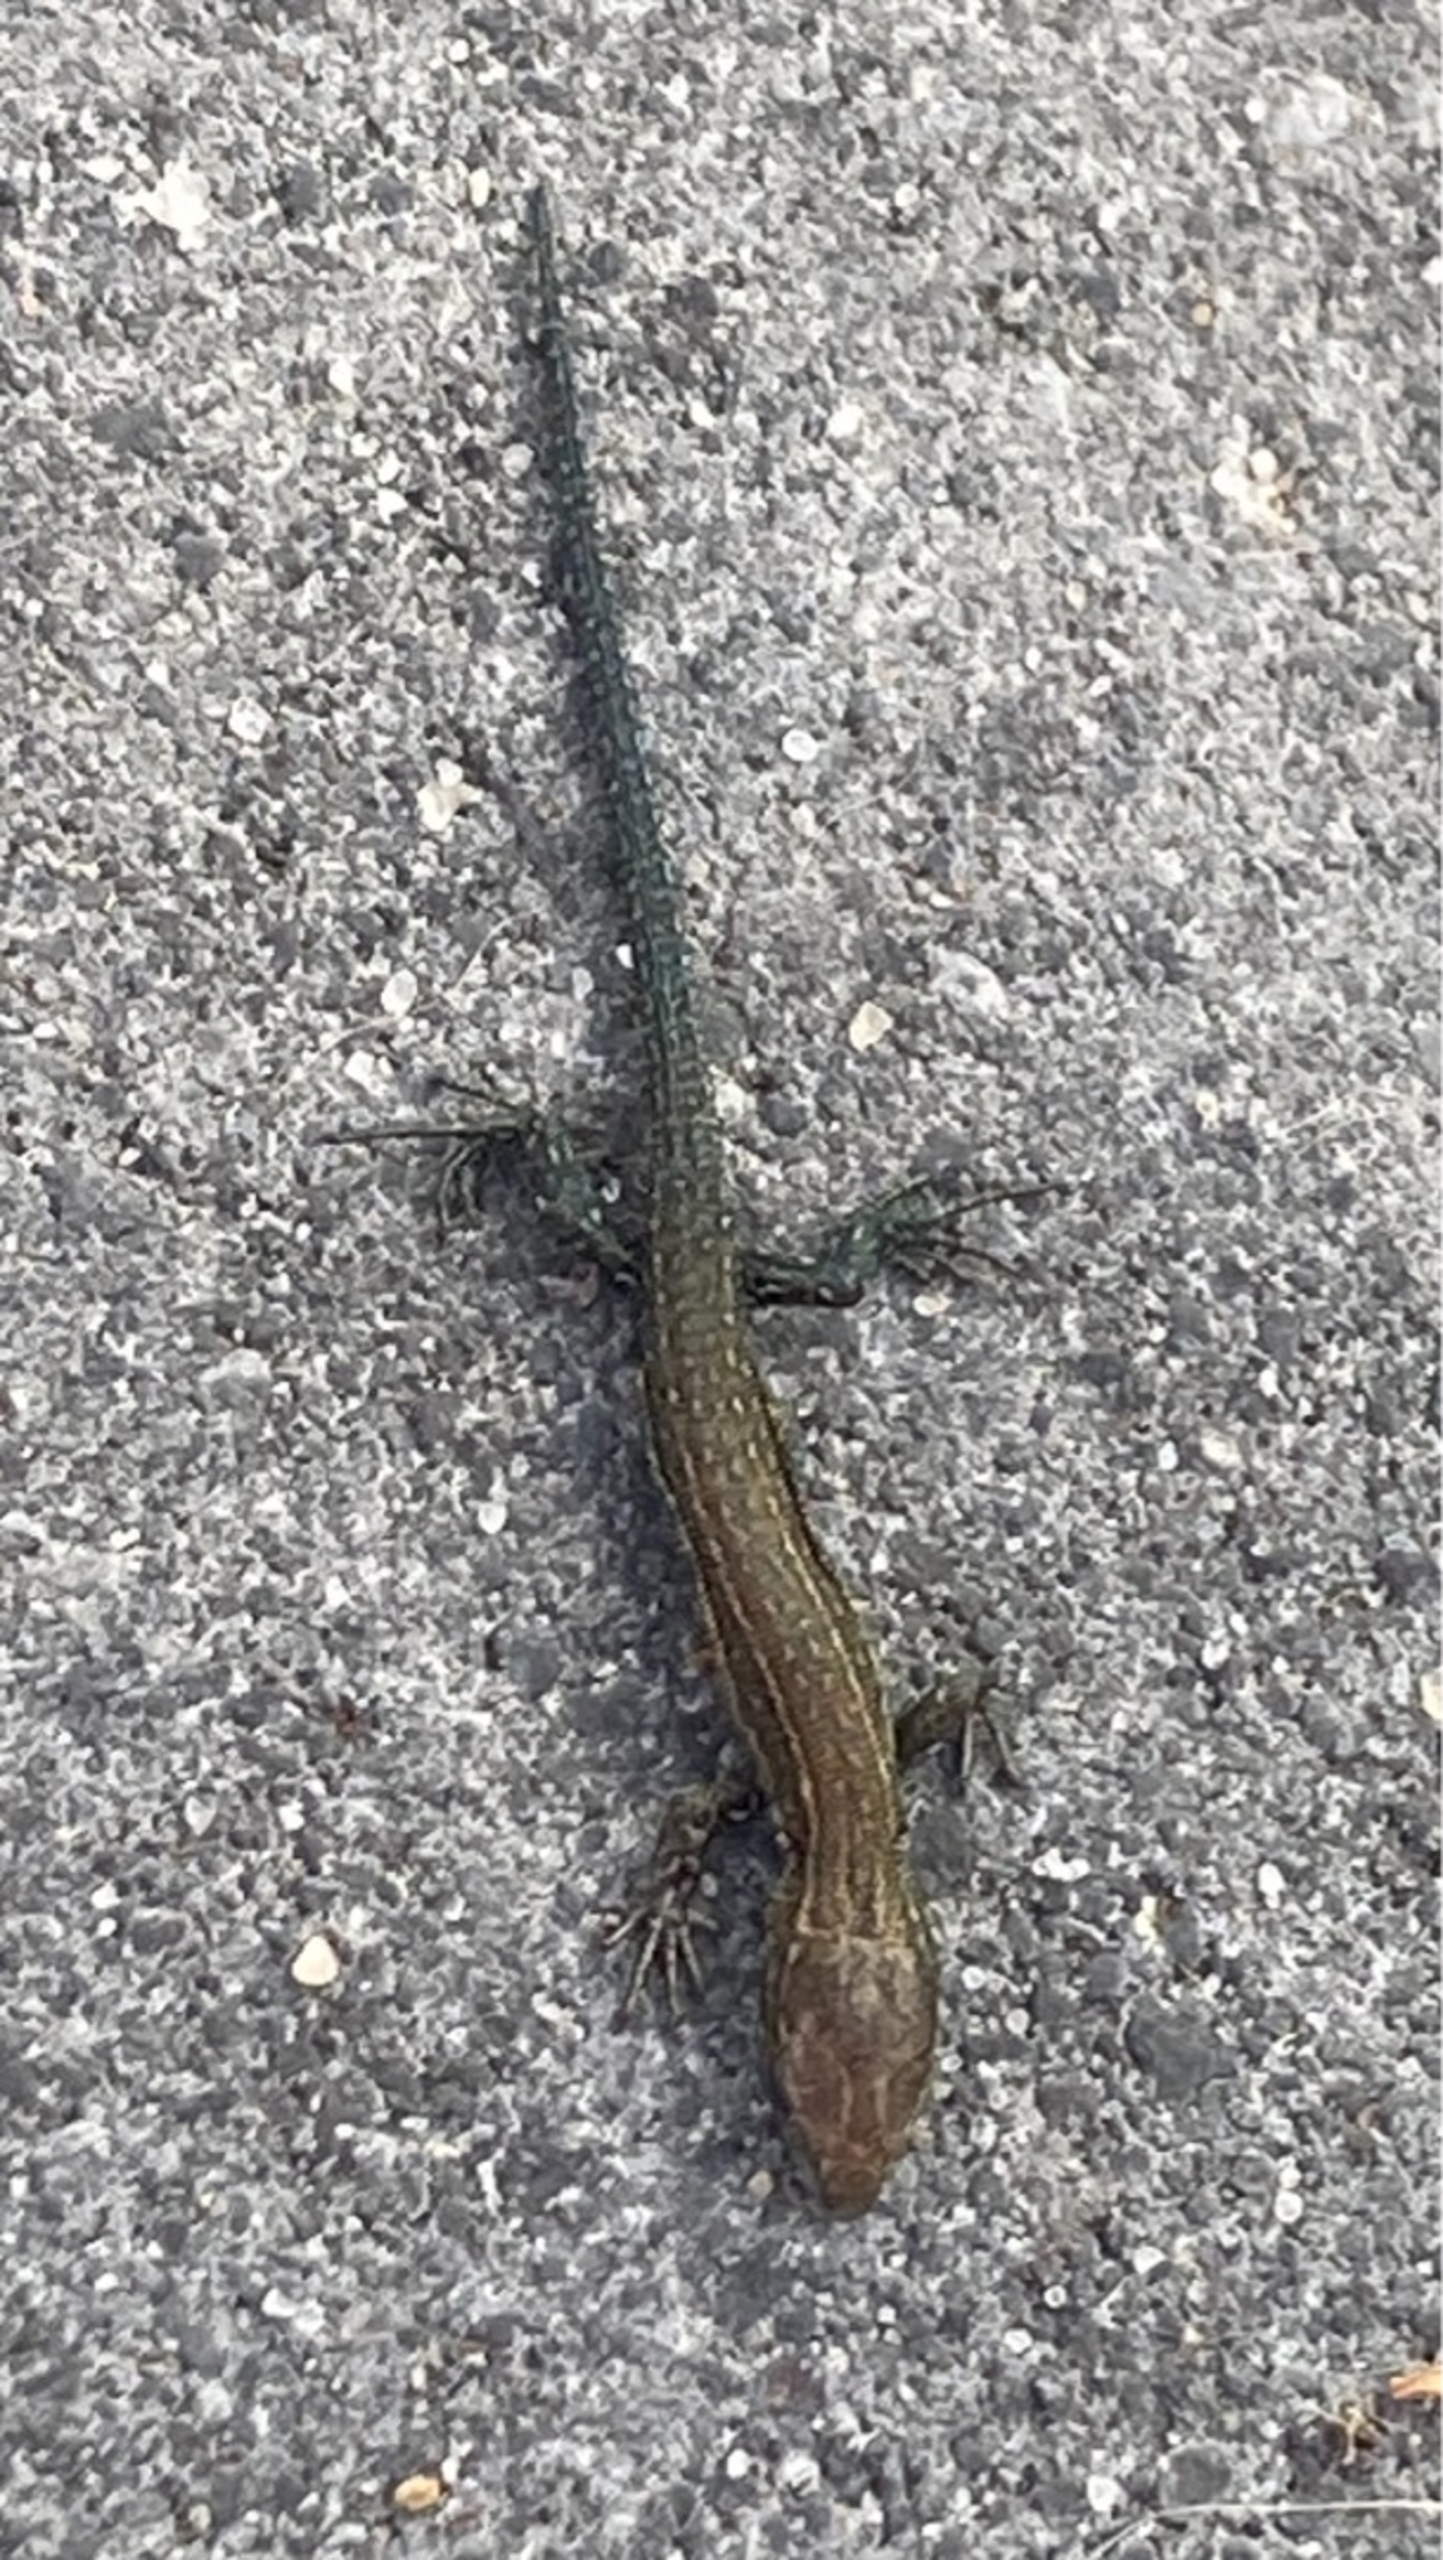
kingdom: Animalia
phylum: Chordata
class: Squamata
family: Lacertidae
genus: Zootoca
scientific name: Zootoca vivipara
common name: Skovfirben
